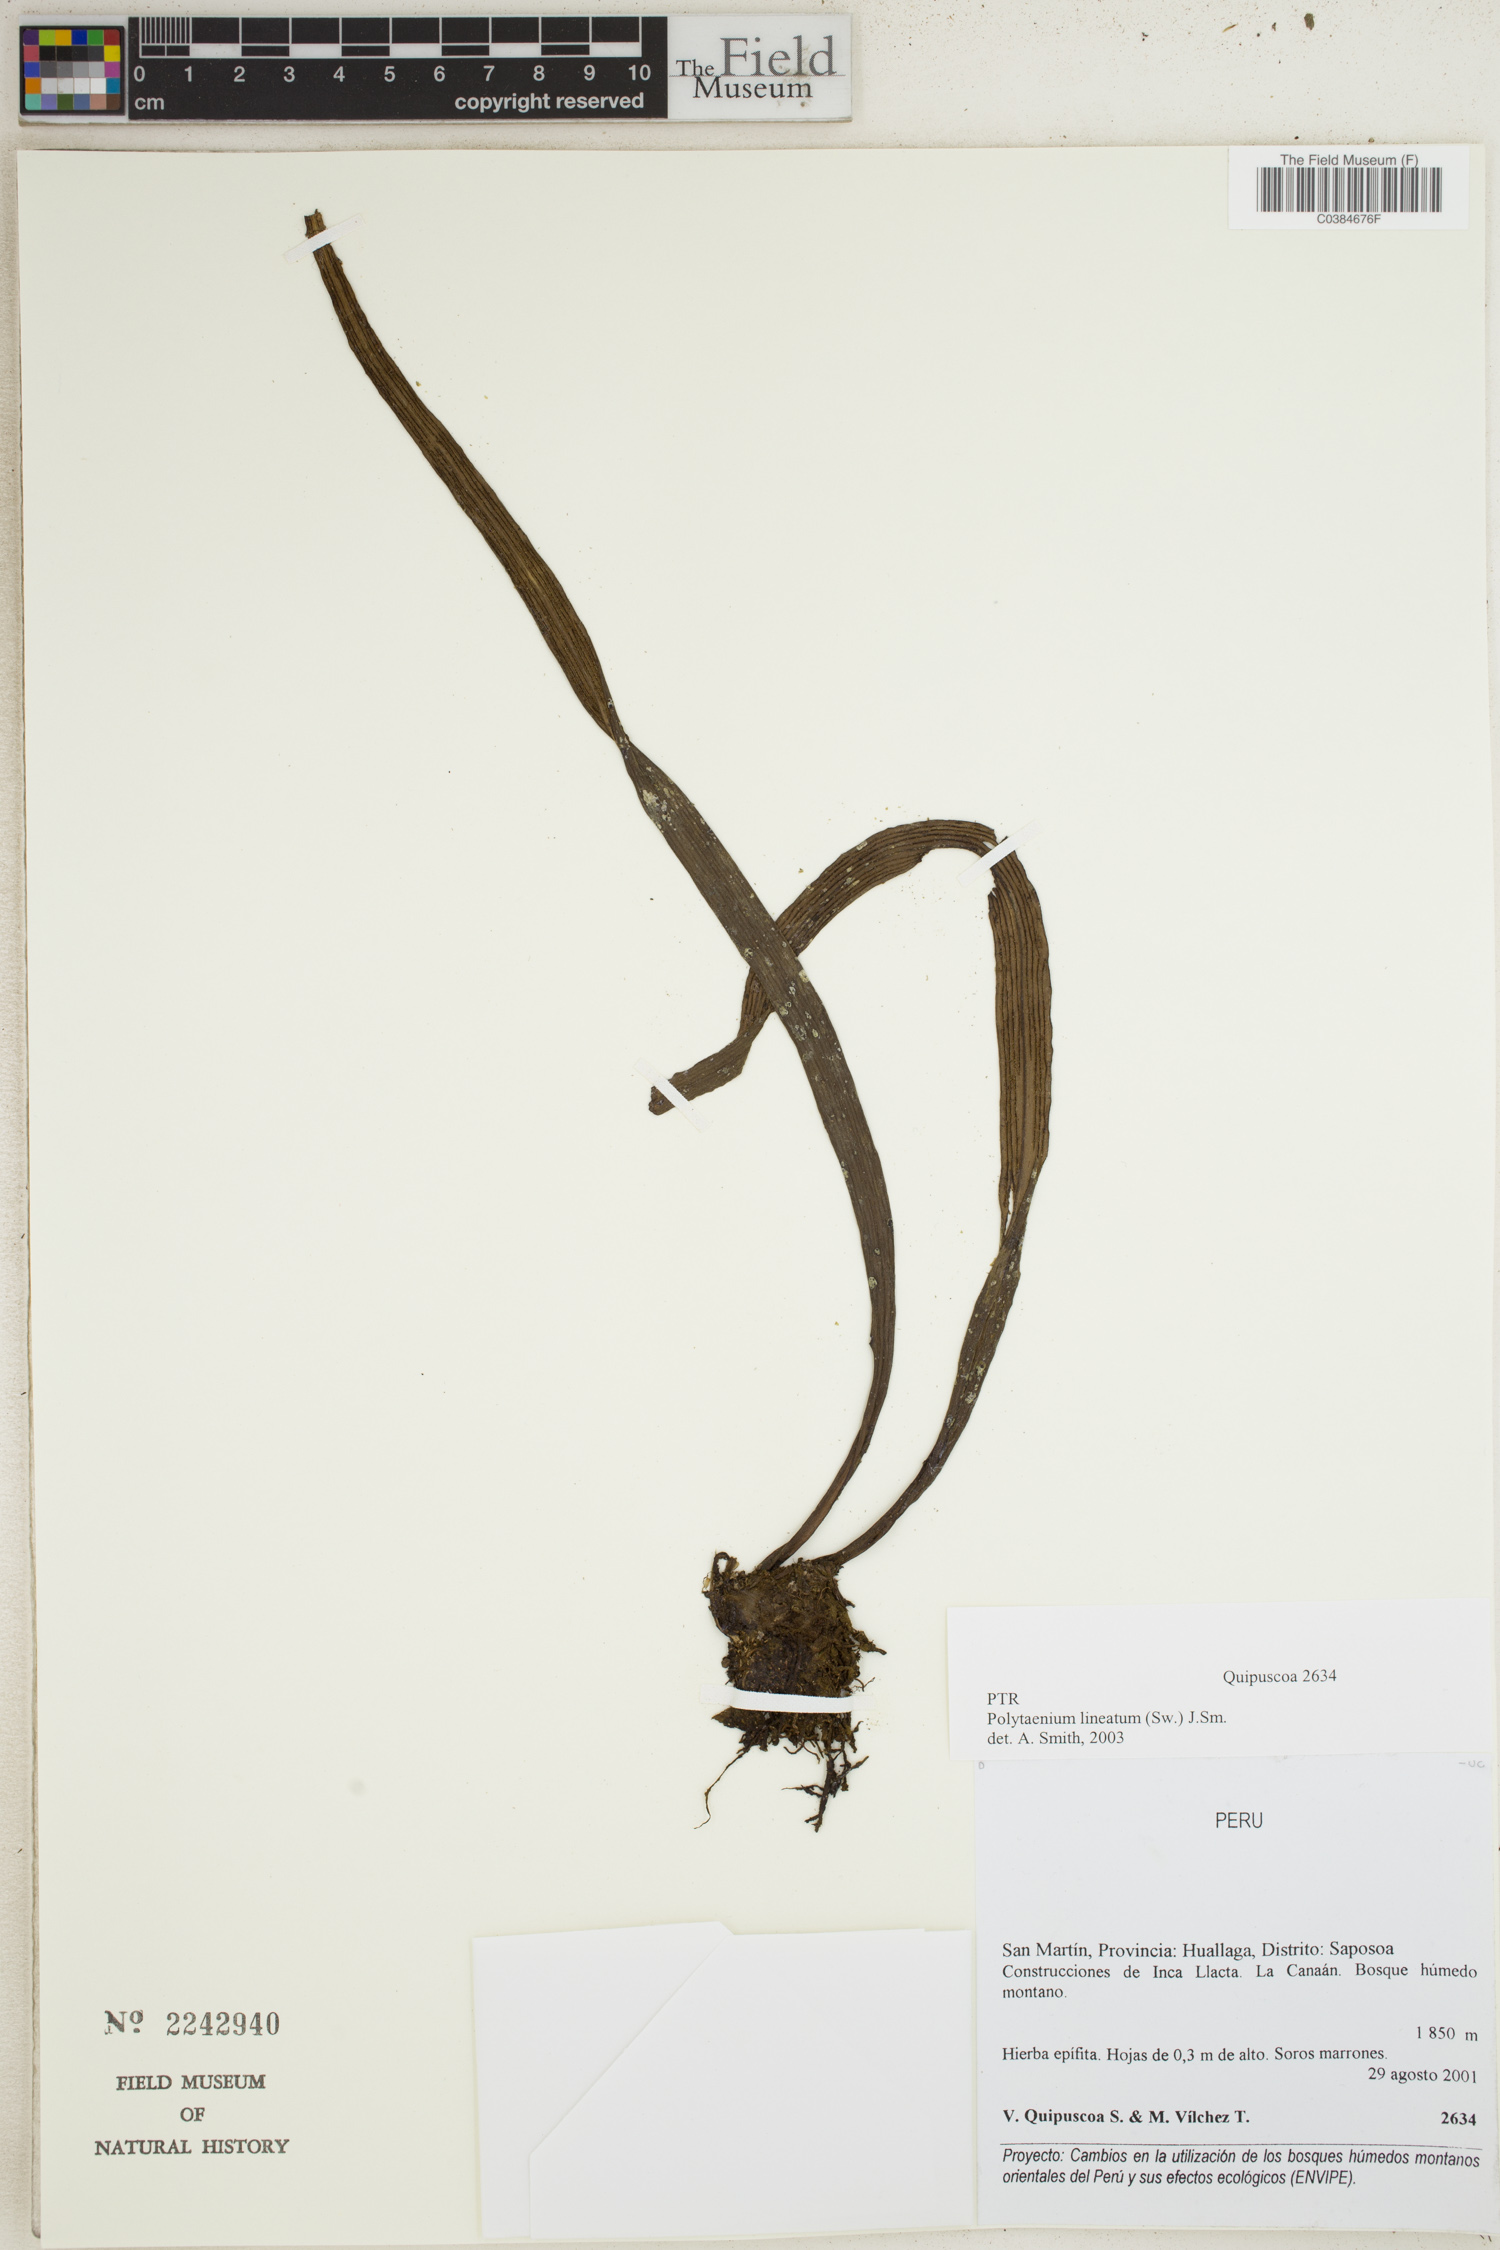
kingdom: Plantae
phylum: Tracheophyta
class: Polypodiopsida
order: Polypodiales
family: Pteridaceae
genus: Polytaenium
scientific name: Polytaenium lineatum
